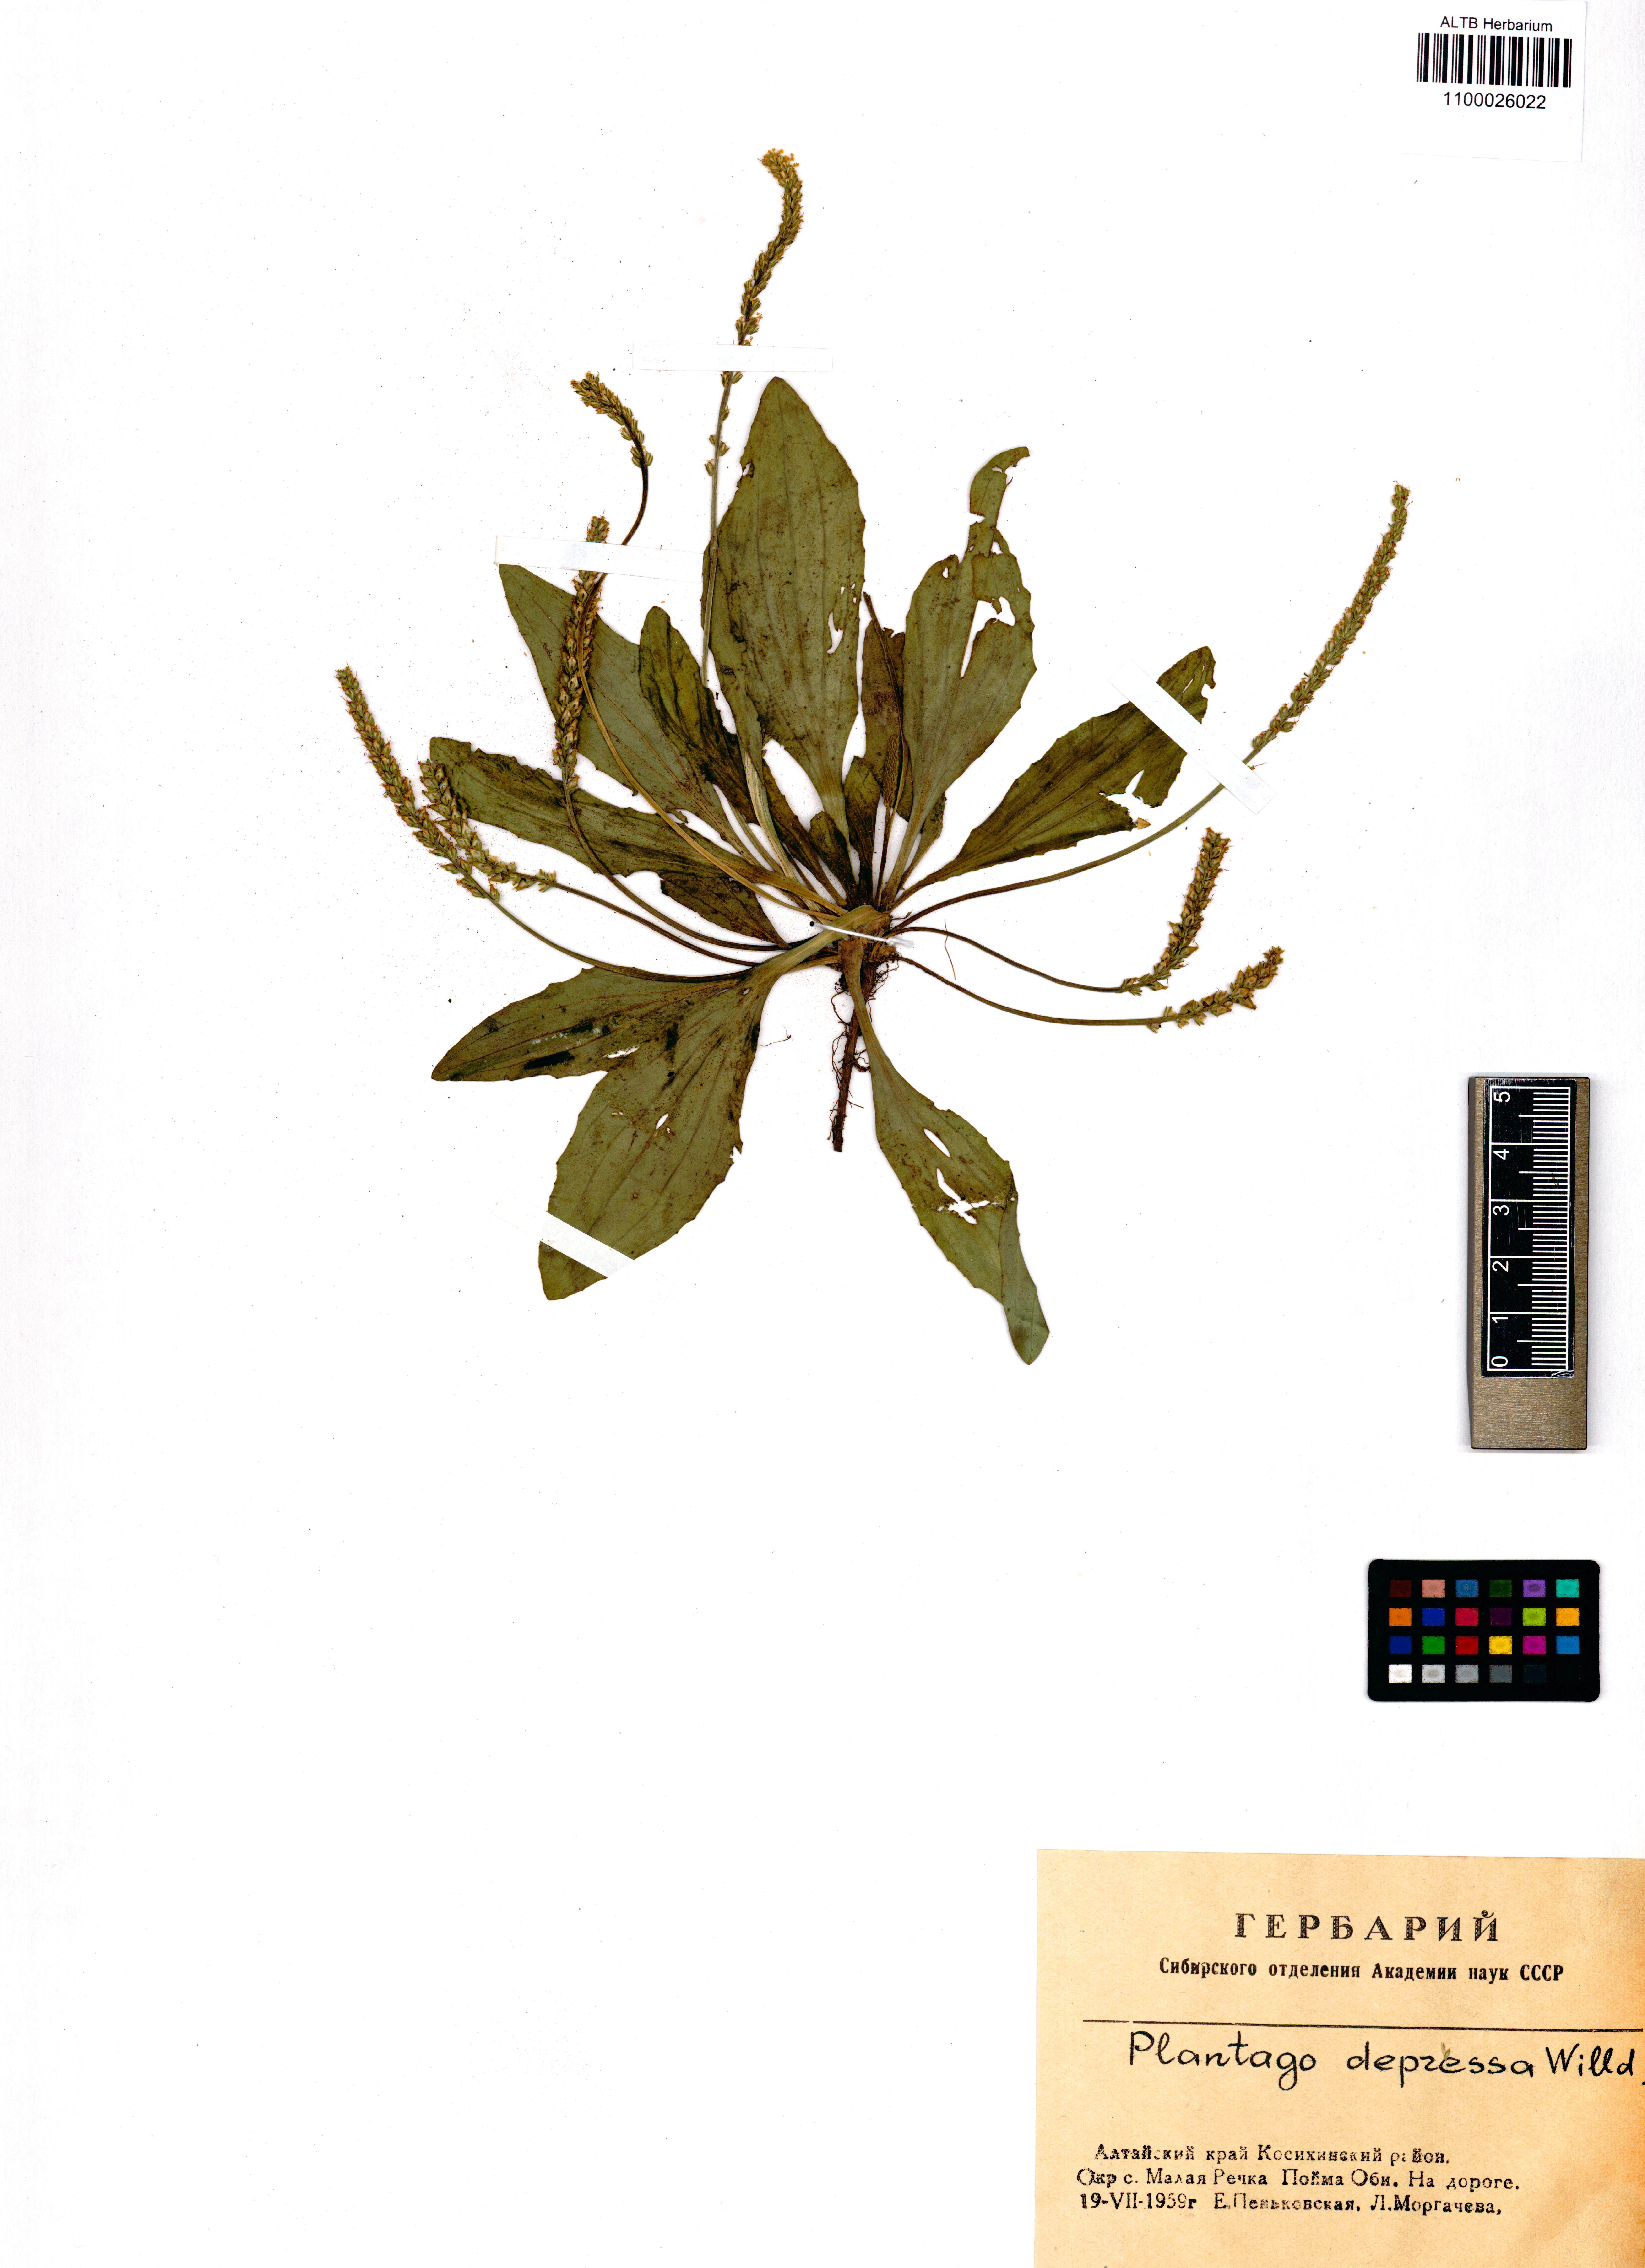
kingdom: Plantae
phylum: Tracheophyta
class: Magnoliopsida
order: Lamiales
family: Plantaginaceae
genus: Plantago
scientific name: Plantago depressa
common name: Depressed plantain
